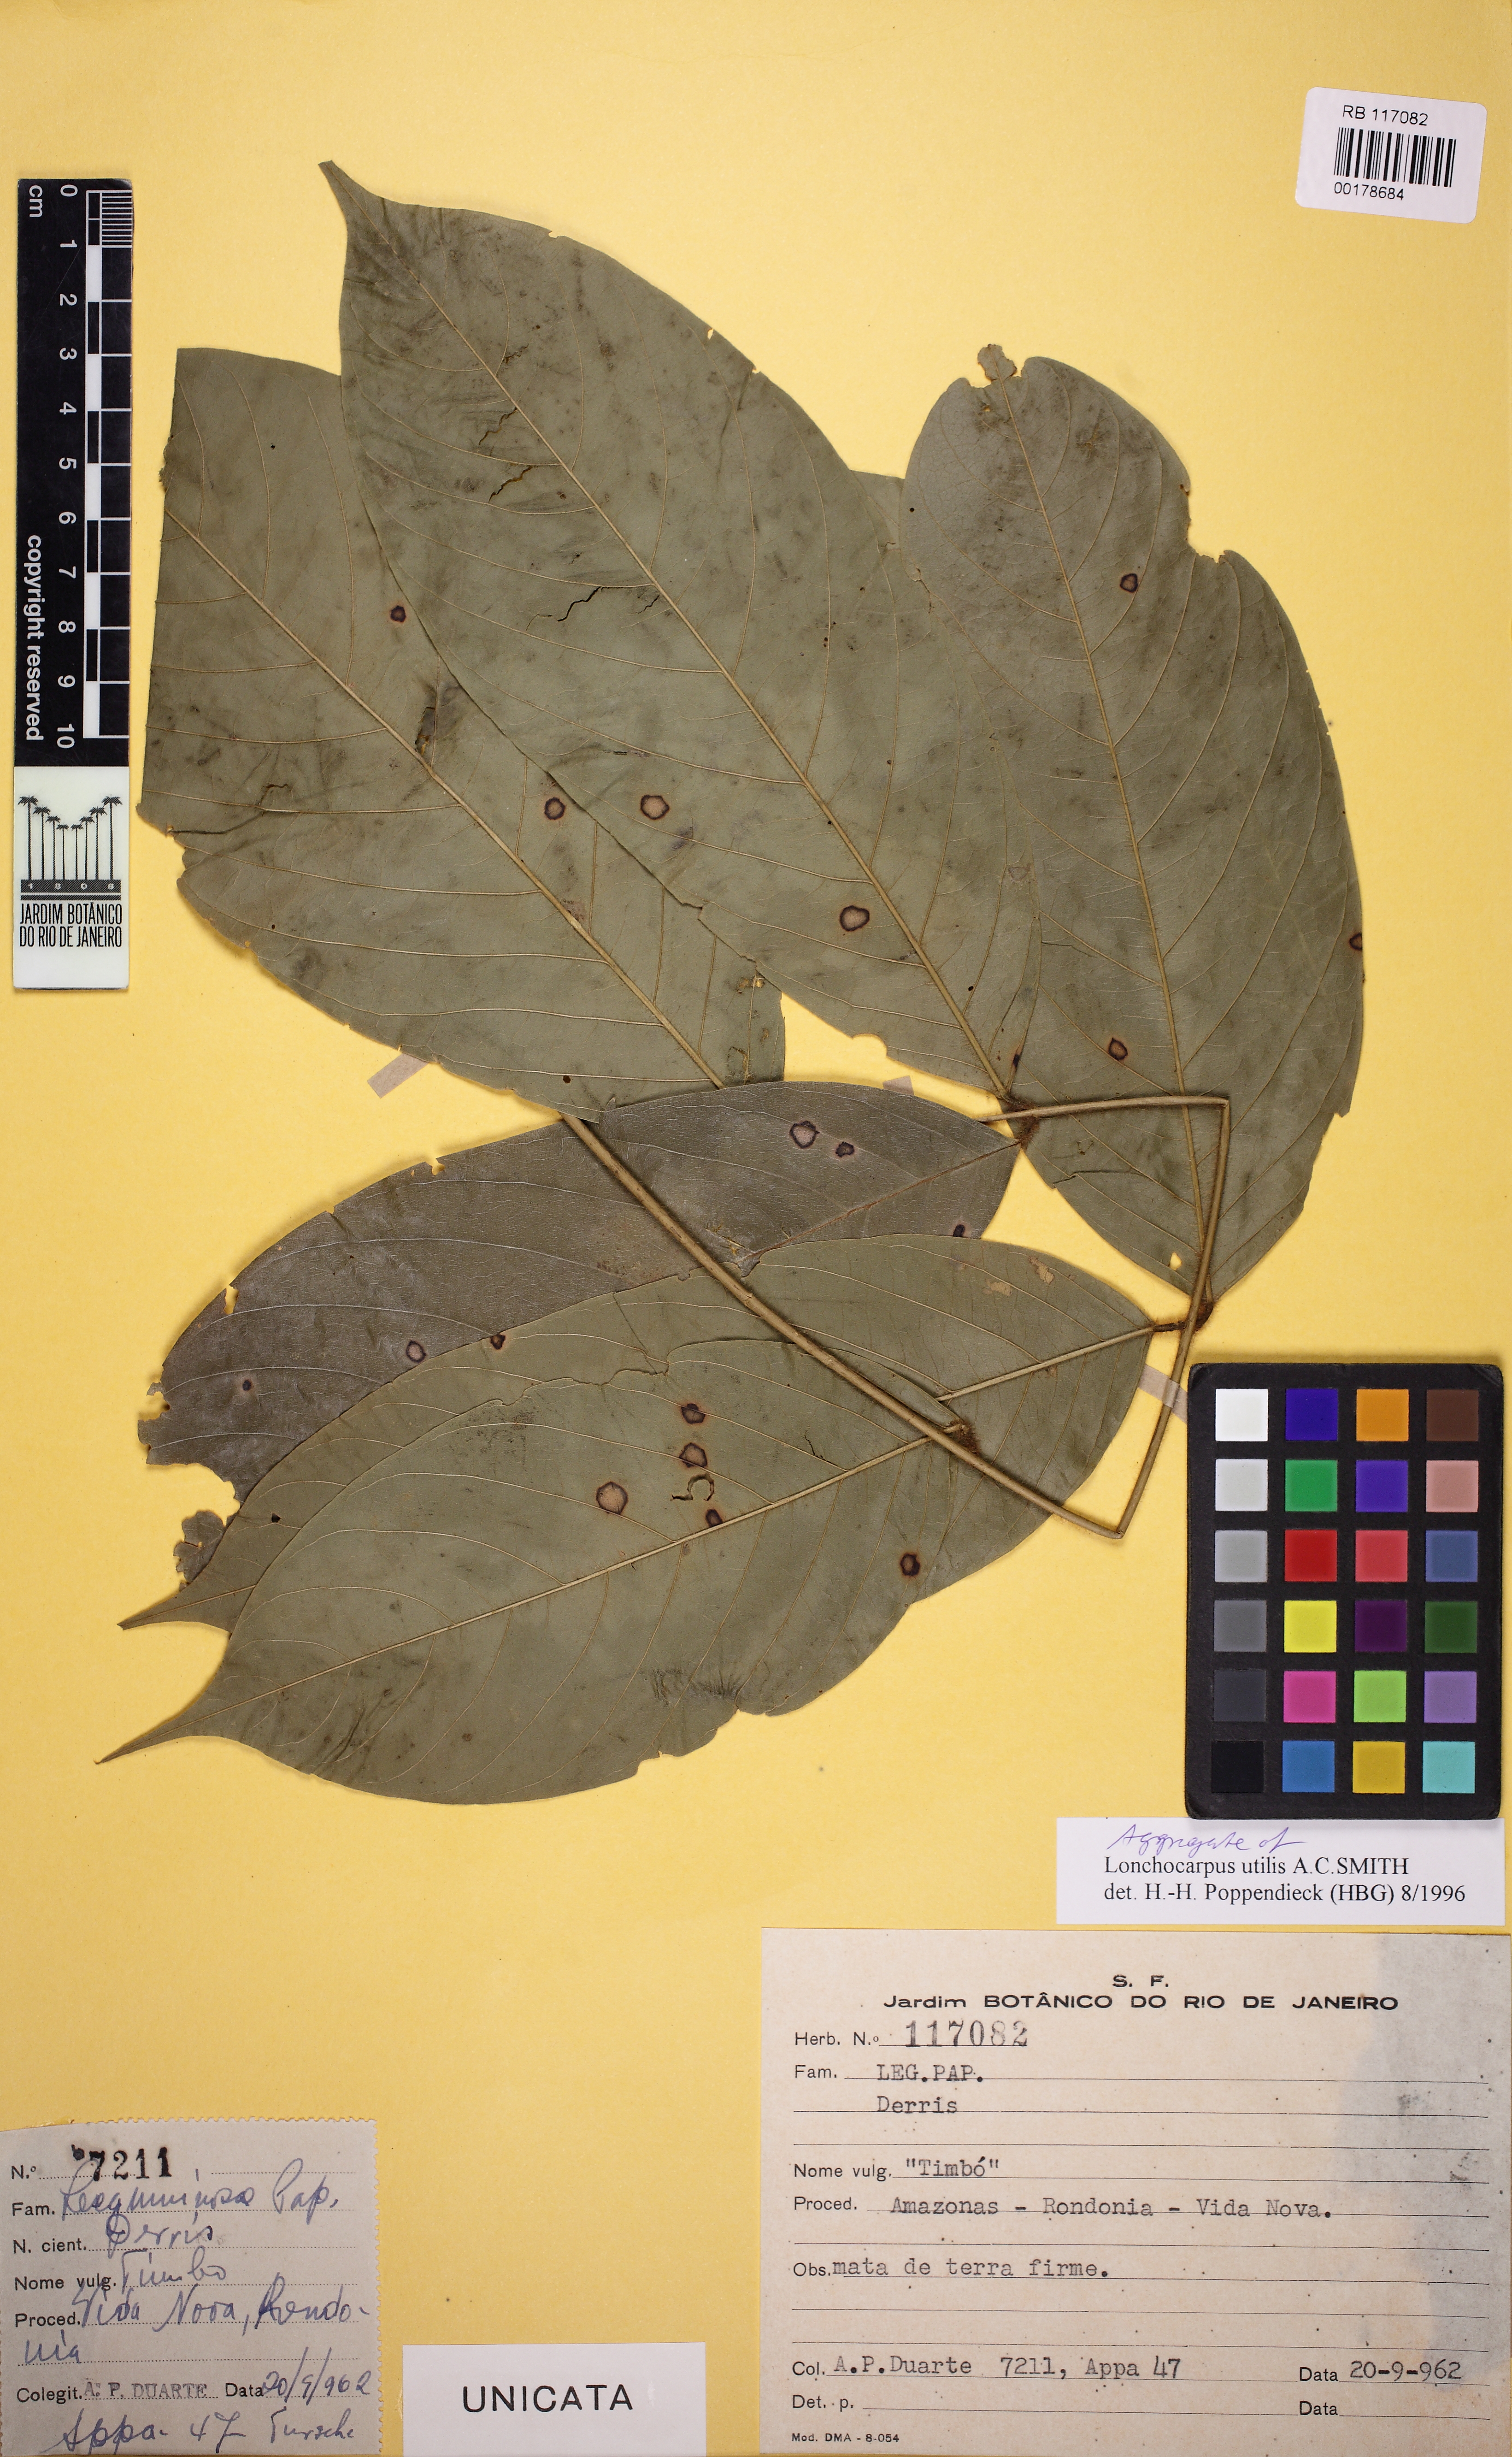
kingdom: Plantae
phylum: Tracheophyta
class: Magnoliopsida
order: Fabales
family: Fabaceae
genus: Deguelia
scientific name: Deguelia utilis
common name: Timbo
